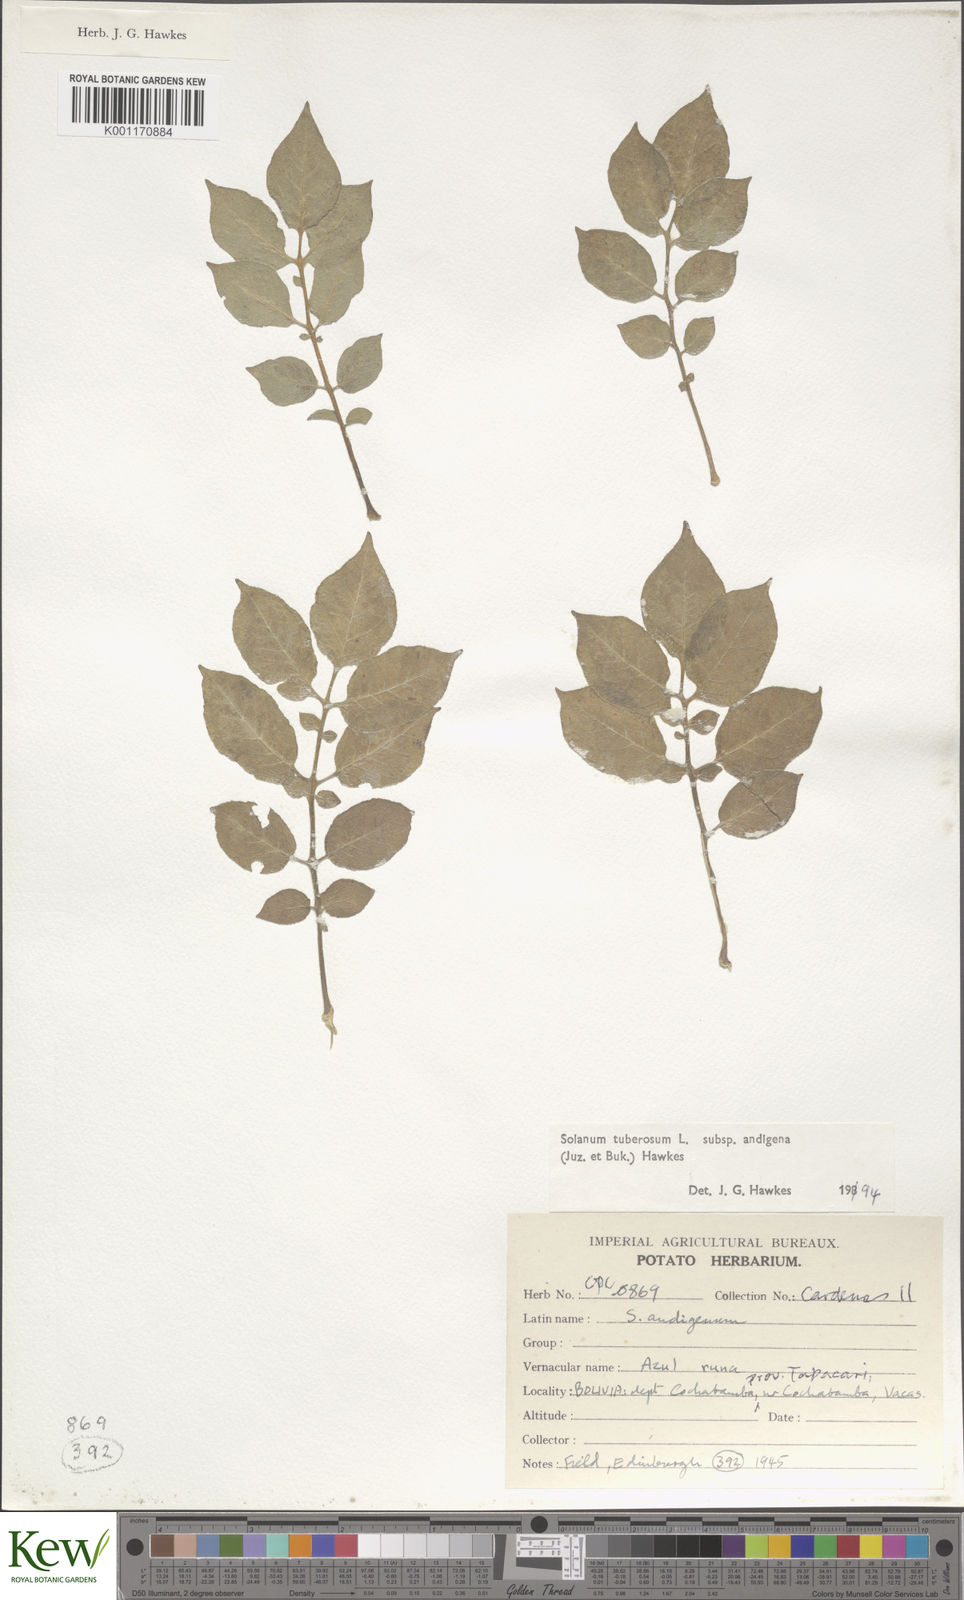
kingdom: Plantae
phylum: Tracheophyta
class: Magnoliopsida
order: Solanales
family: Solanaceae
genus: Solanum
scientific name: Solanum tuberosum
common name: Potato
